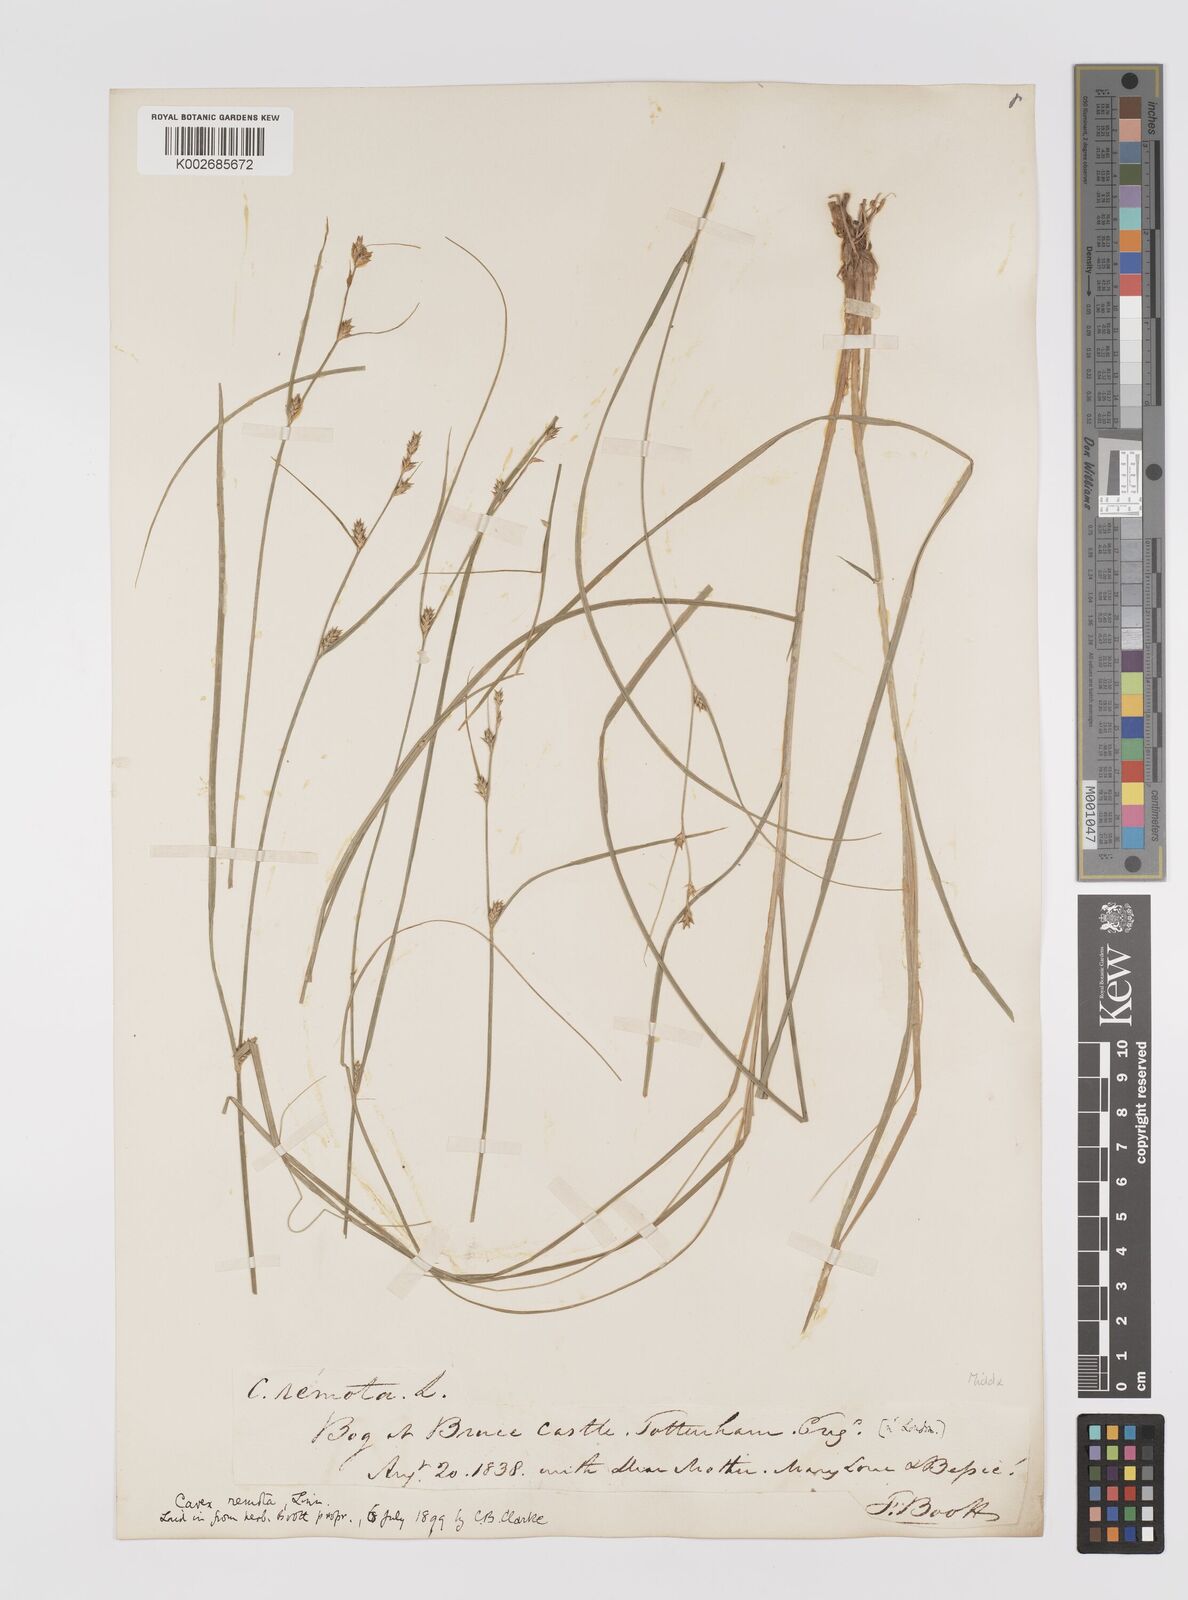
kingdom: Plantae
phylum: Tracheophyta
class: Liliopsida
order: Poales
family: Cyperaceae
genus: Carex
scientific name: Carex remota
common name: Remote sedge
